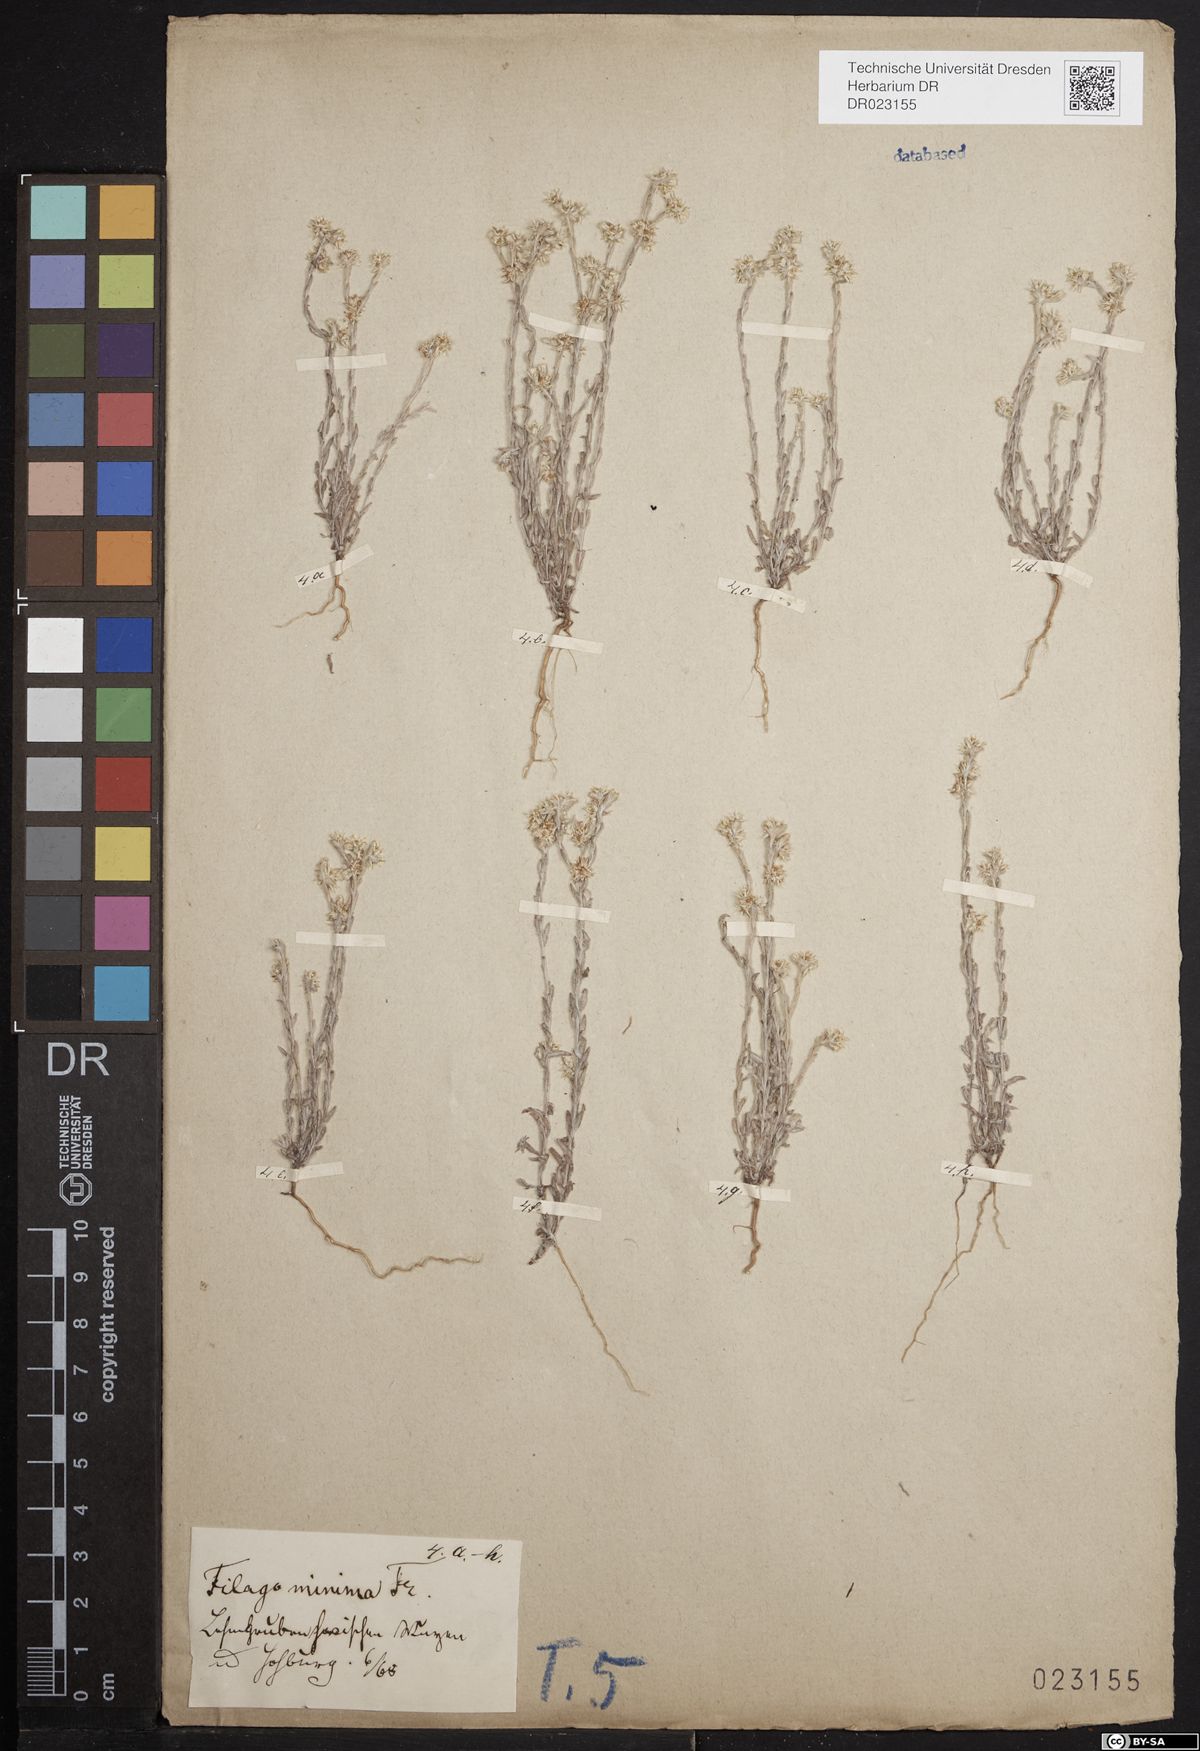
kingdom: Plantae
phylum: Tracheophyta
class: Magnoliopsida
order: Asterales
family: Asteraceae
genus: Logfia
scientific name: Logfia minima
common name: Little cottonrose
